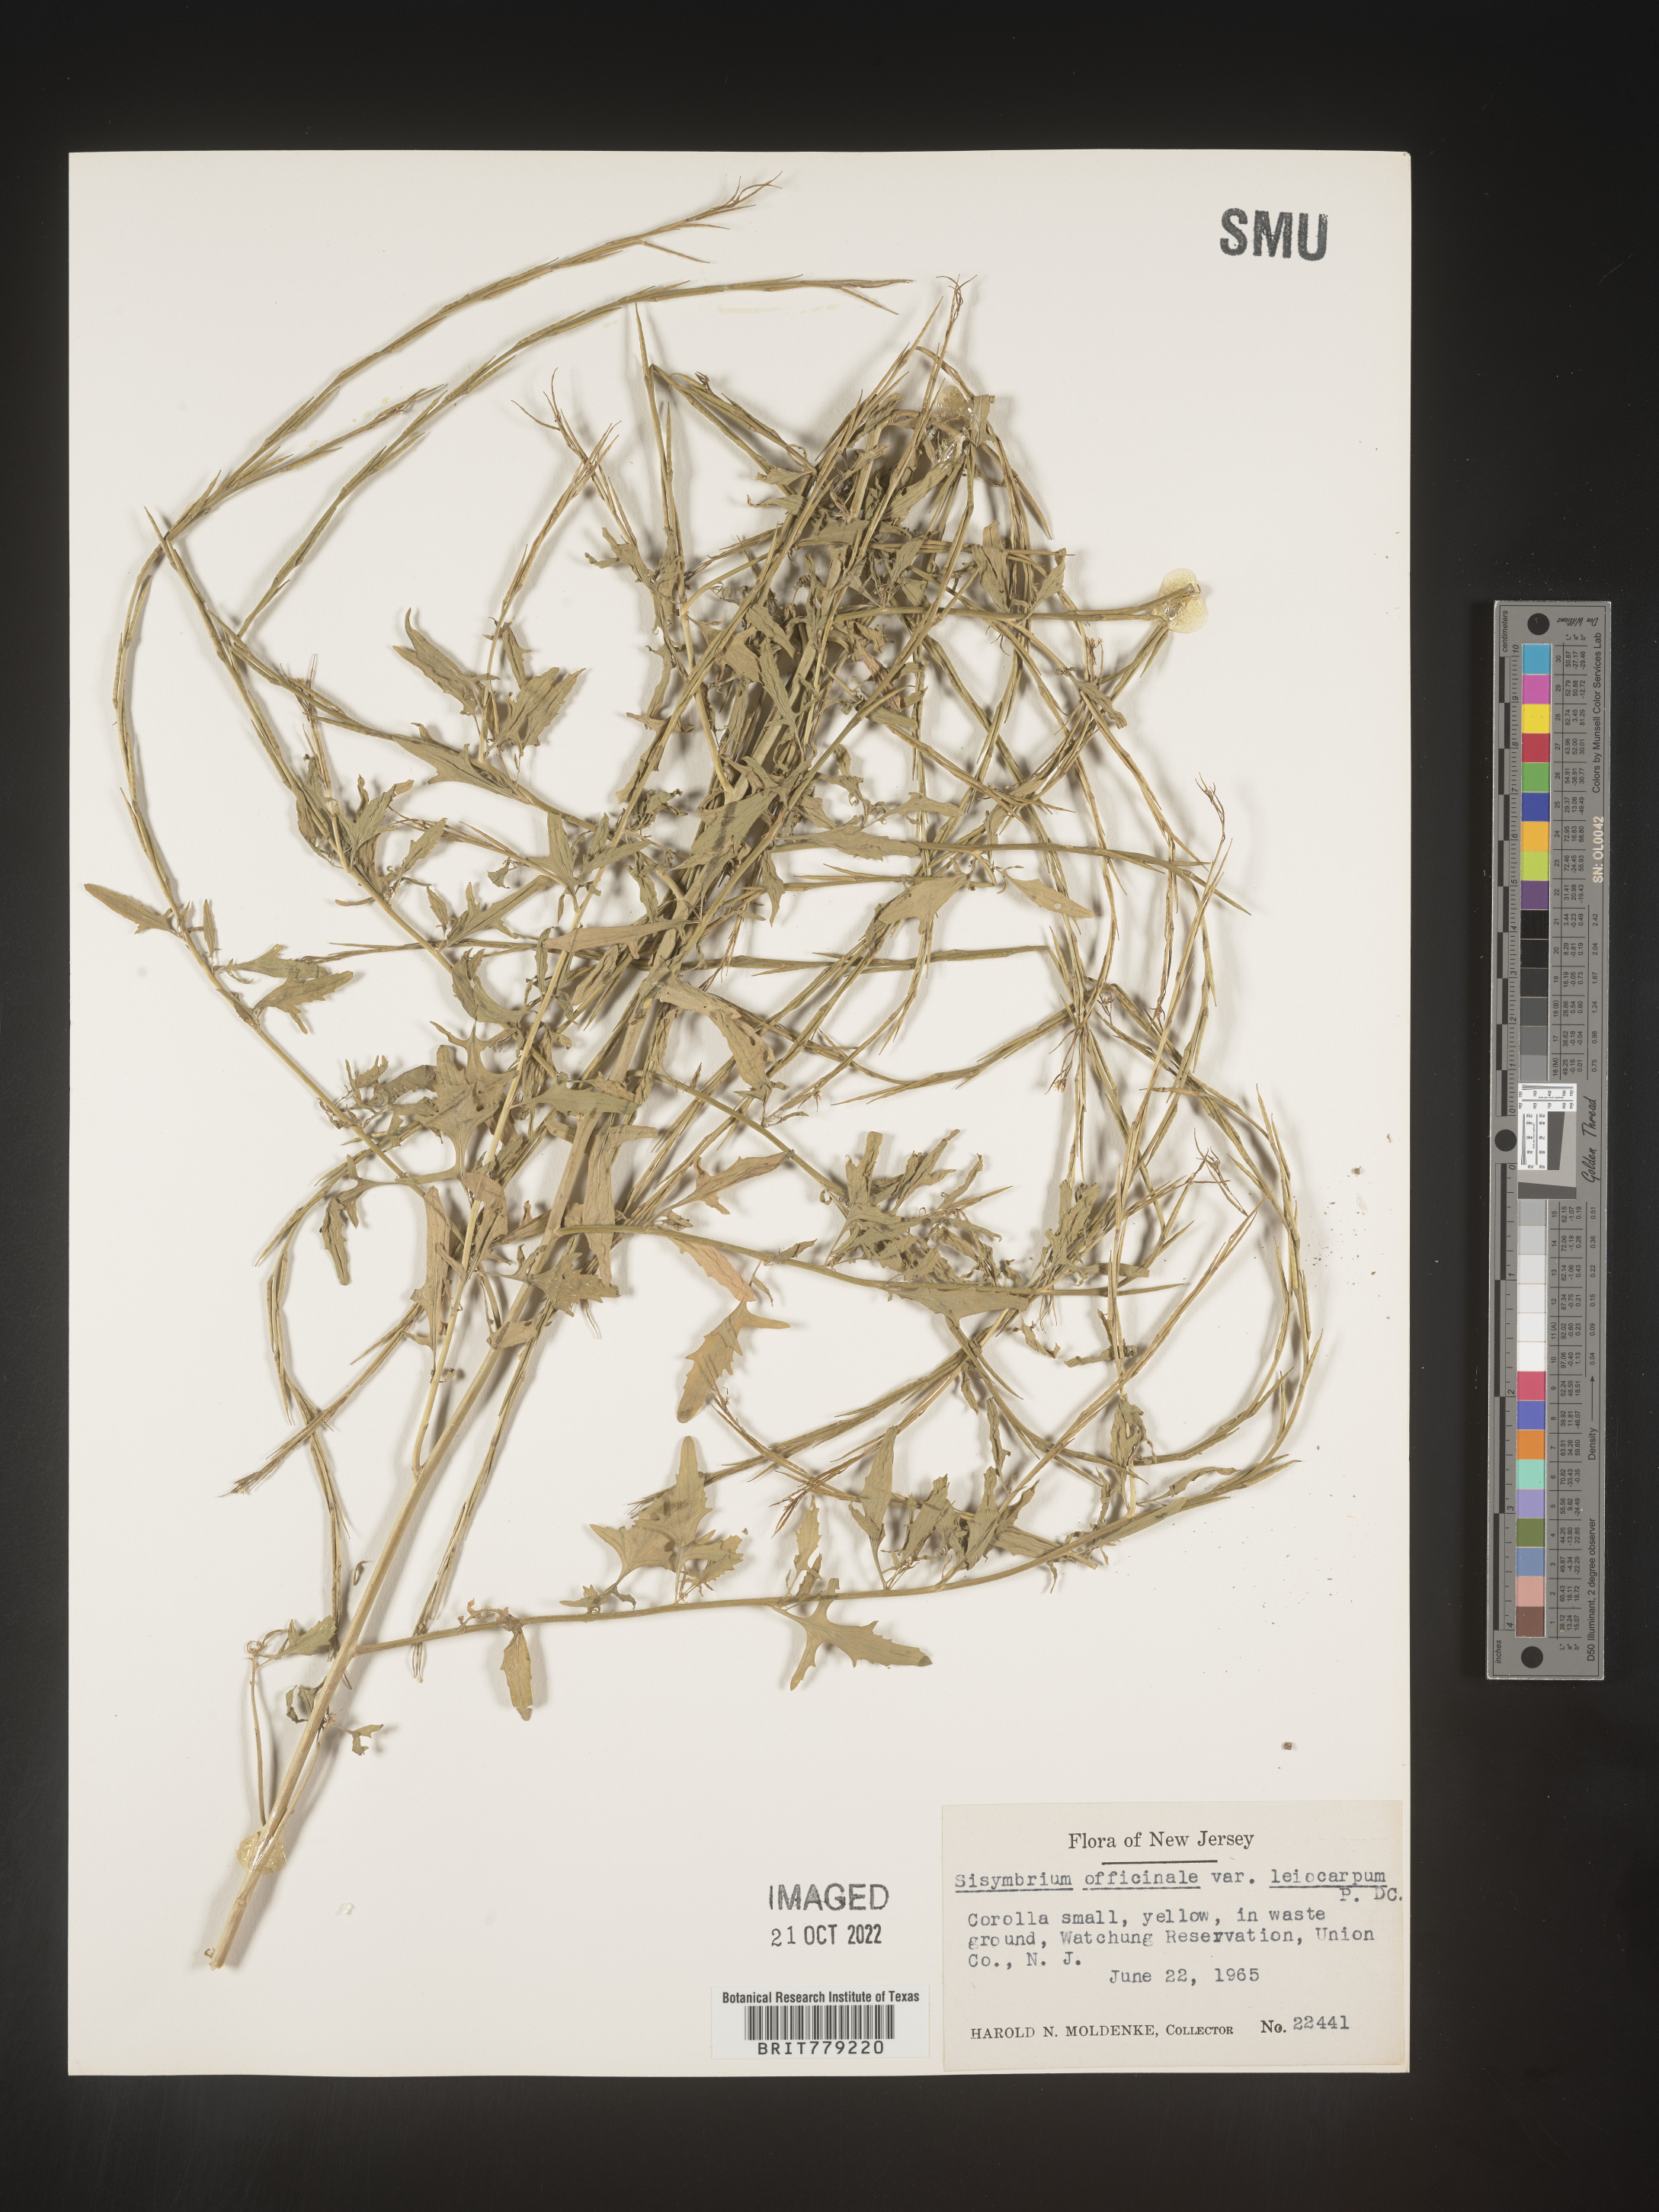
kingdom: Plantae
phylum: Tracheophyta
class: Magnoliopsida
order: Brassicales
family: Brassicaceae
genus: Sisymbrium
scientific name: Sisymbrium officinale
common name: Hedge mustard
